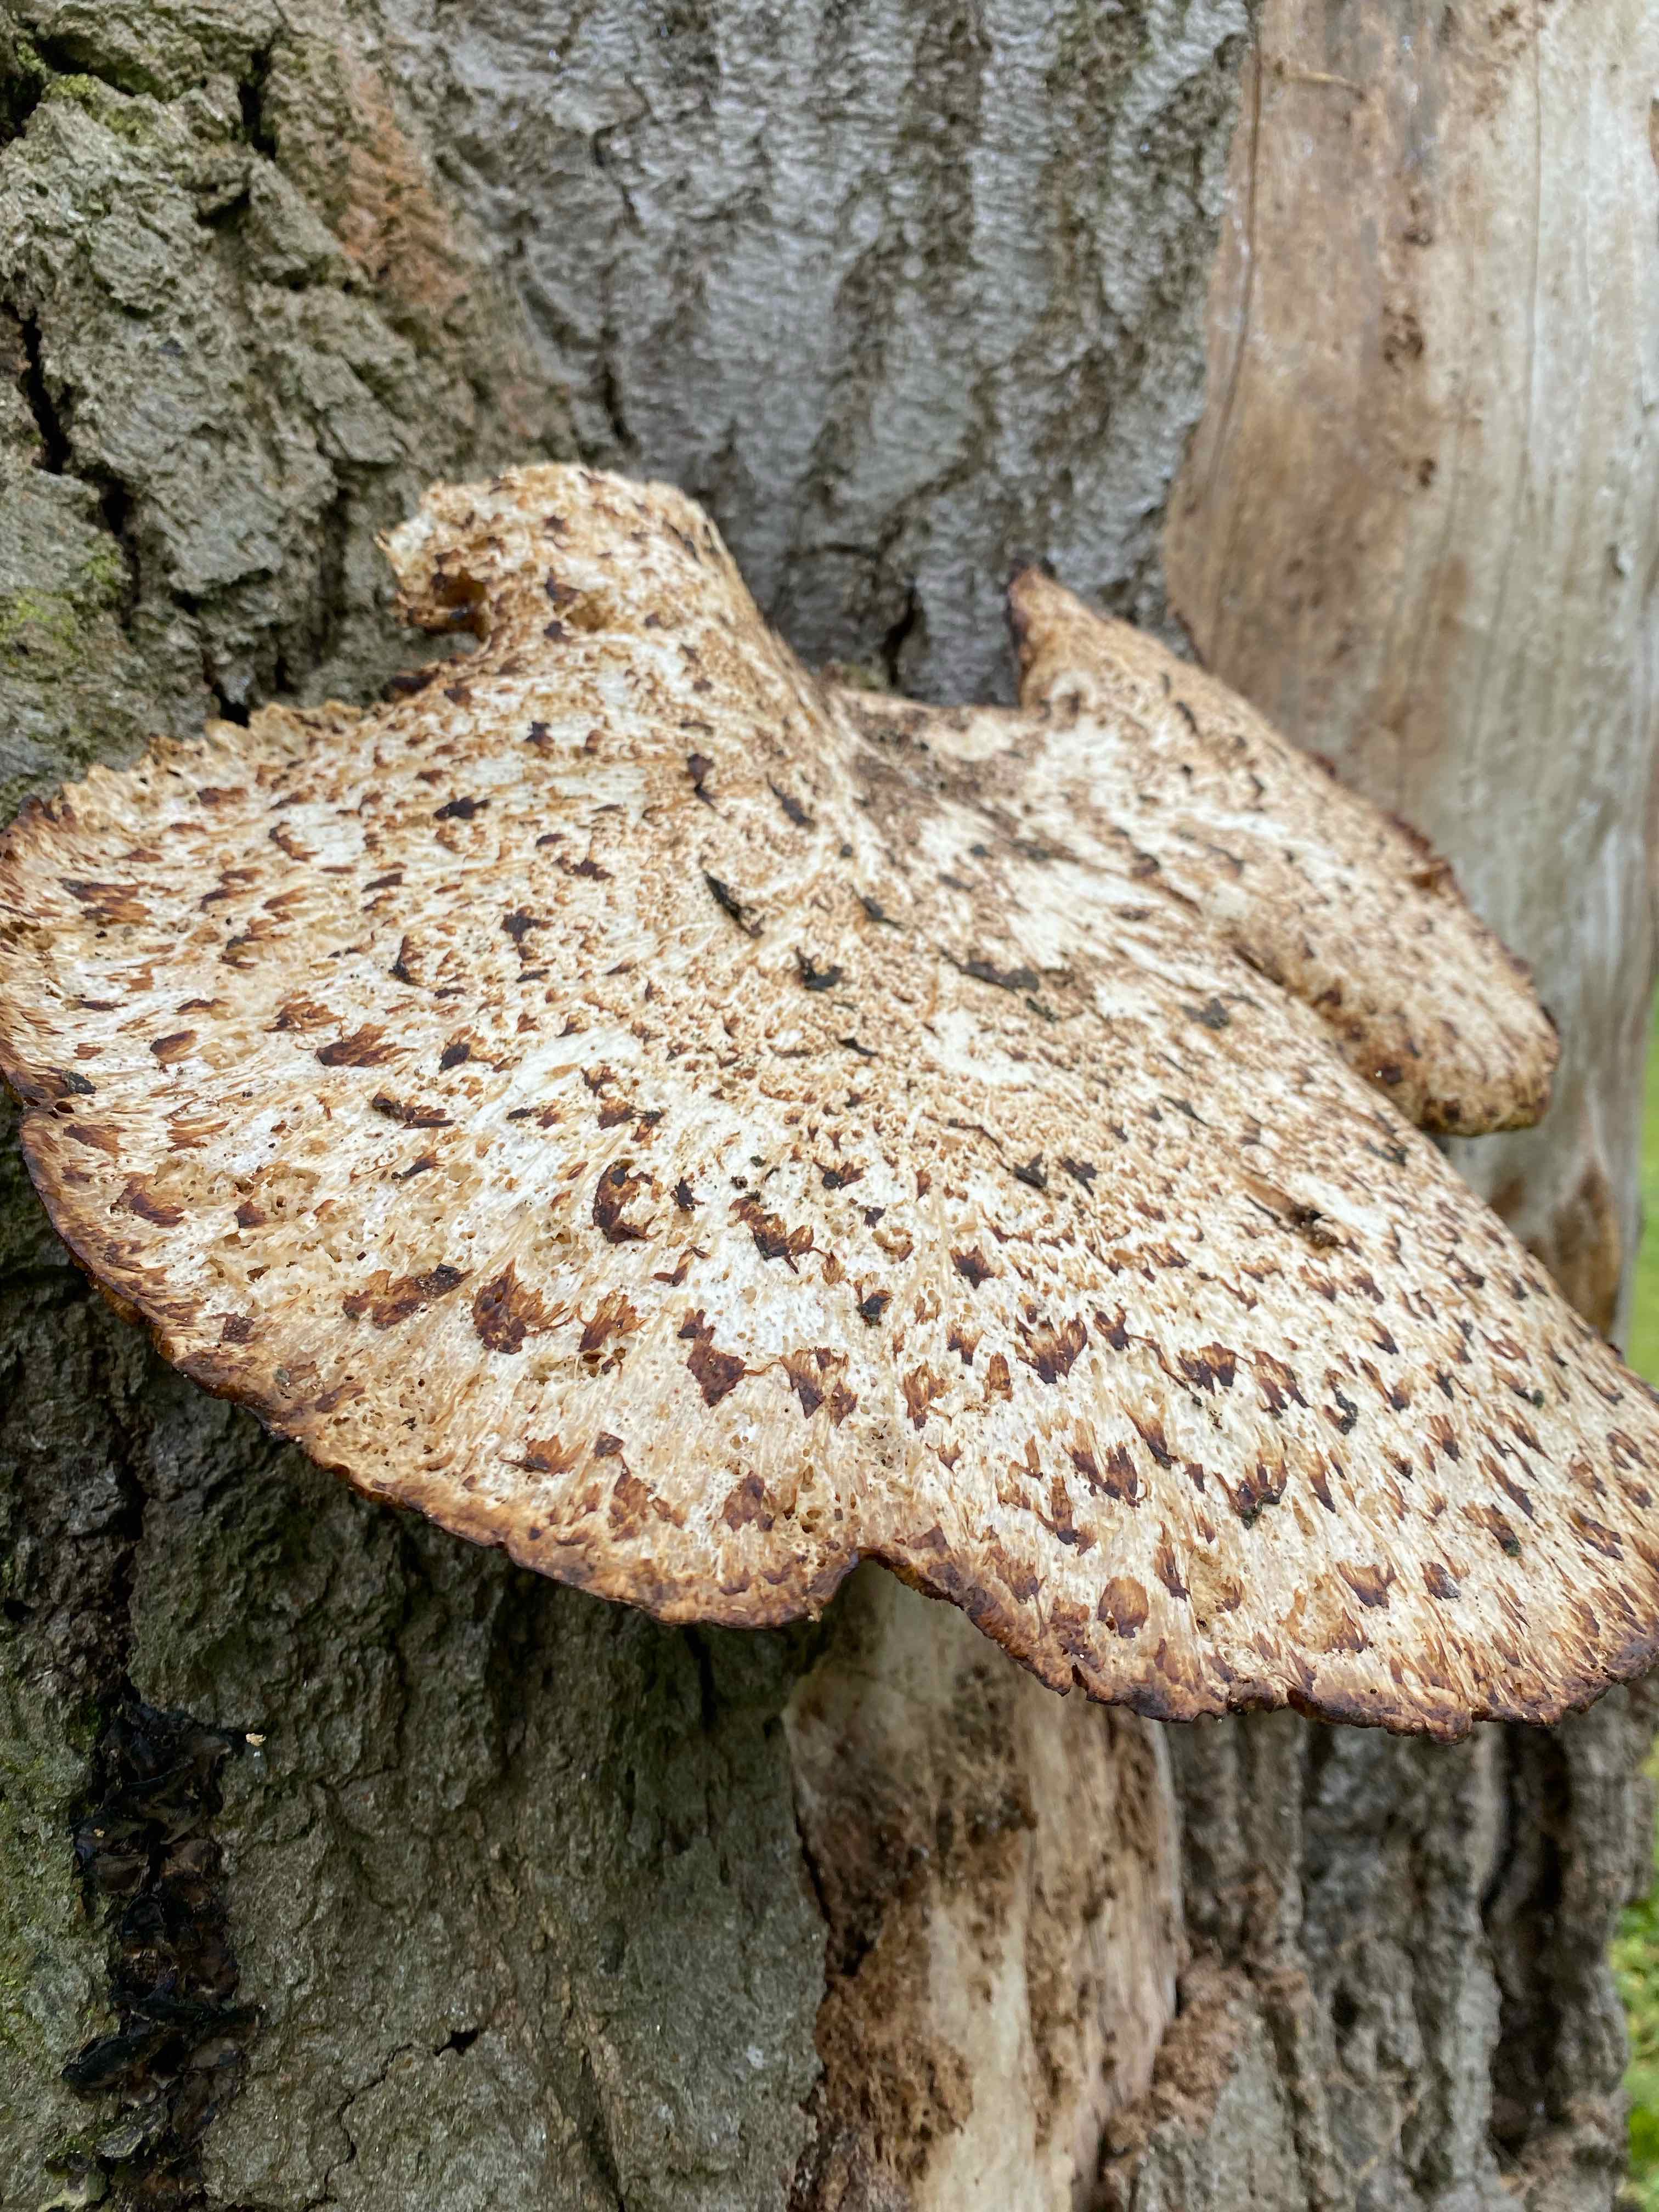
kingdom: Fungi
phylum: Basidiomycota
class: Agaricomycetes
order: Polyporales
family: Polyporaceae
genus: Cerioporus
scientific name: Cerioporus squamosus
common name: skællet stilkporesvamp
